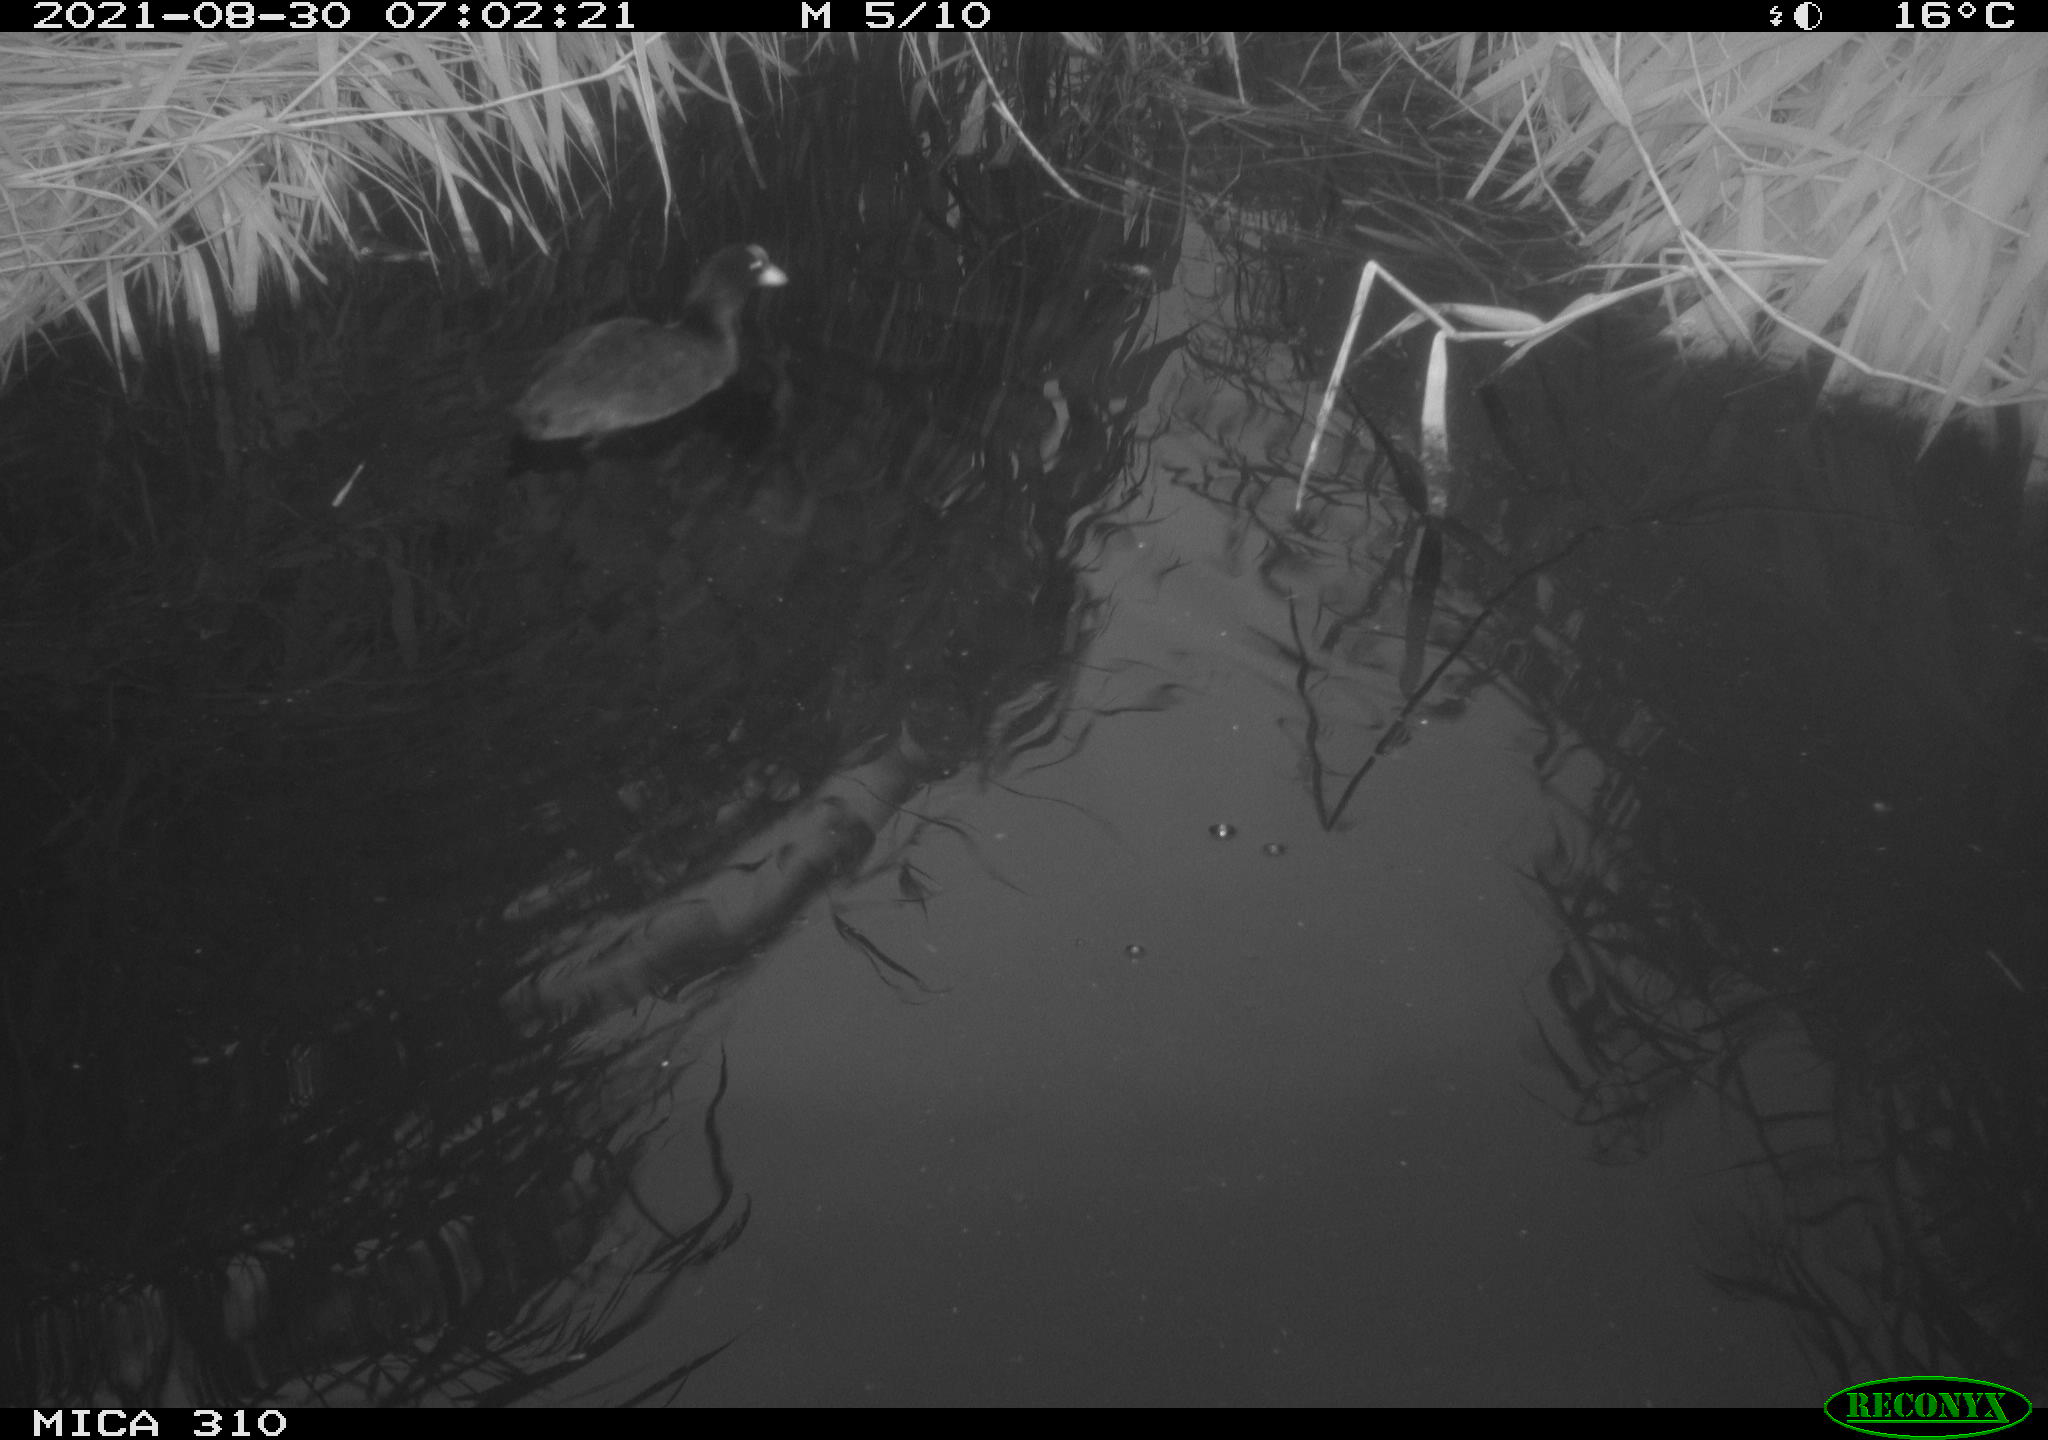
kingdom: Animalia
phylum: Chordata
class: Aves
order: Gruiformes
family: Rallidae
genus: Fulica
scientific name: Fulica atra
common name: Eurasian coot
